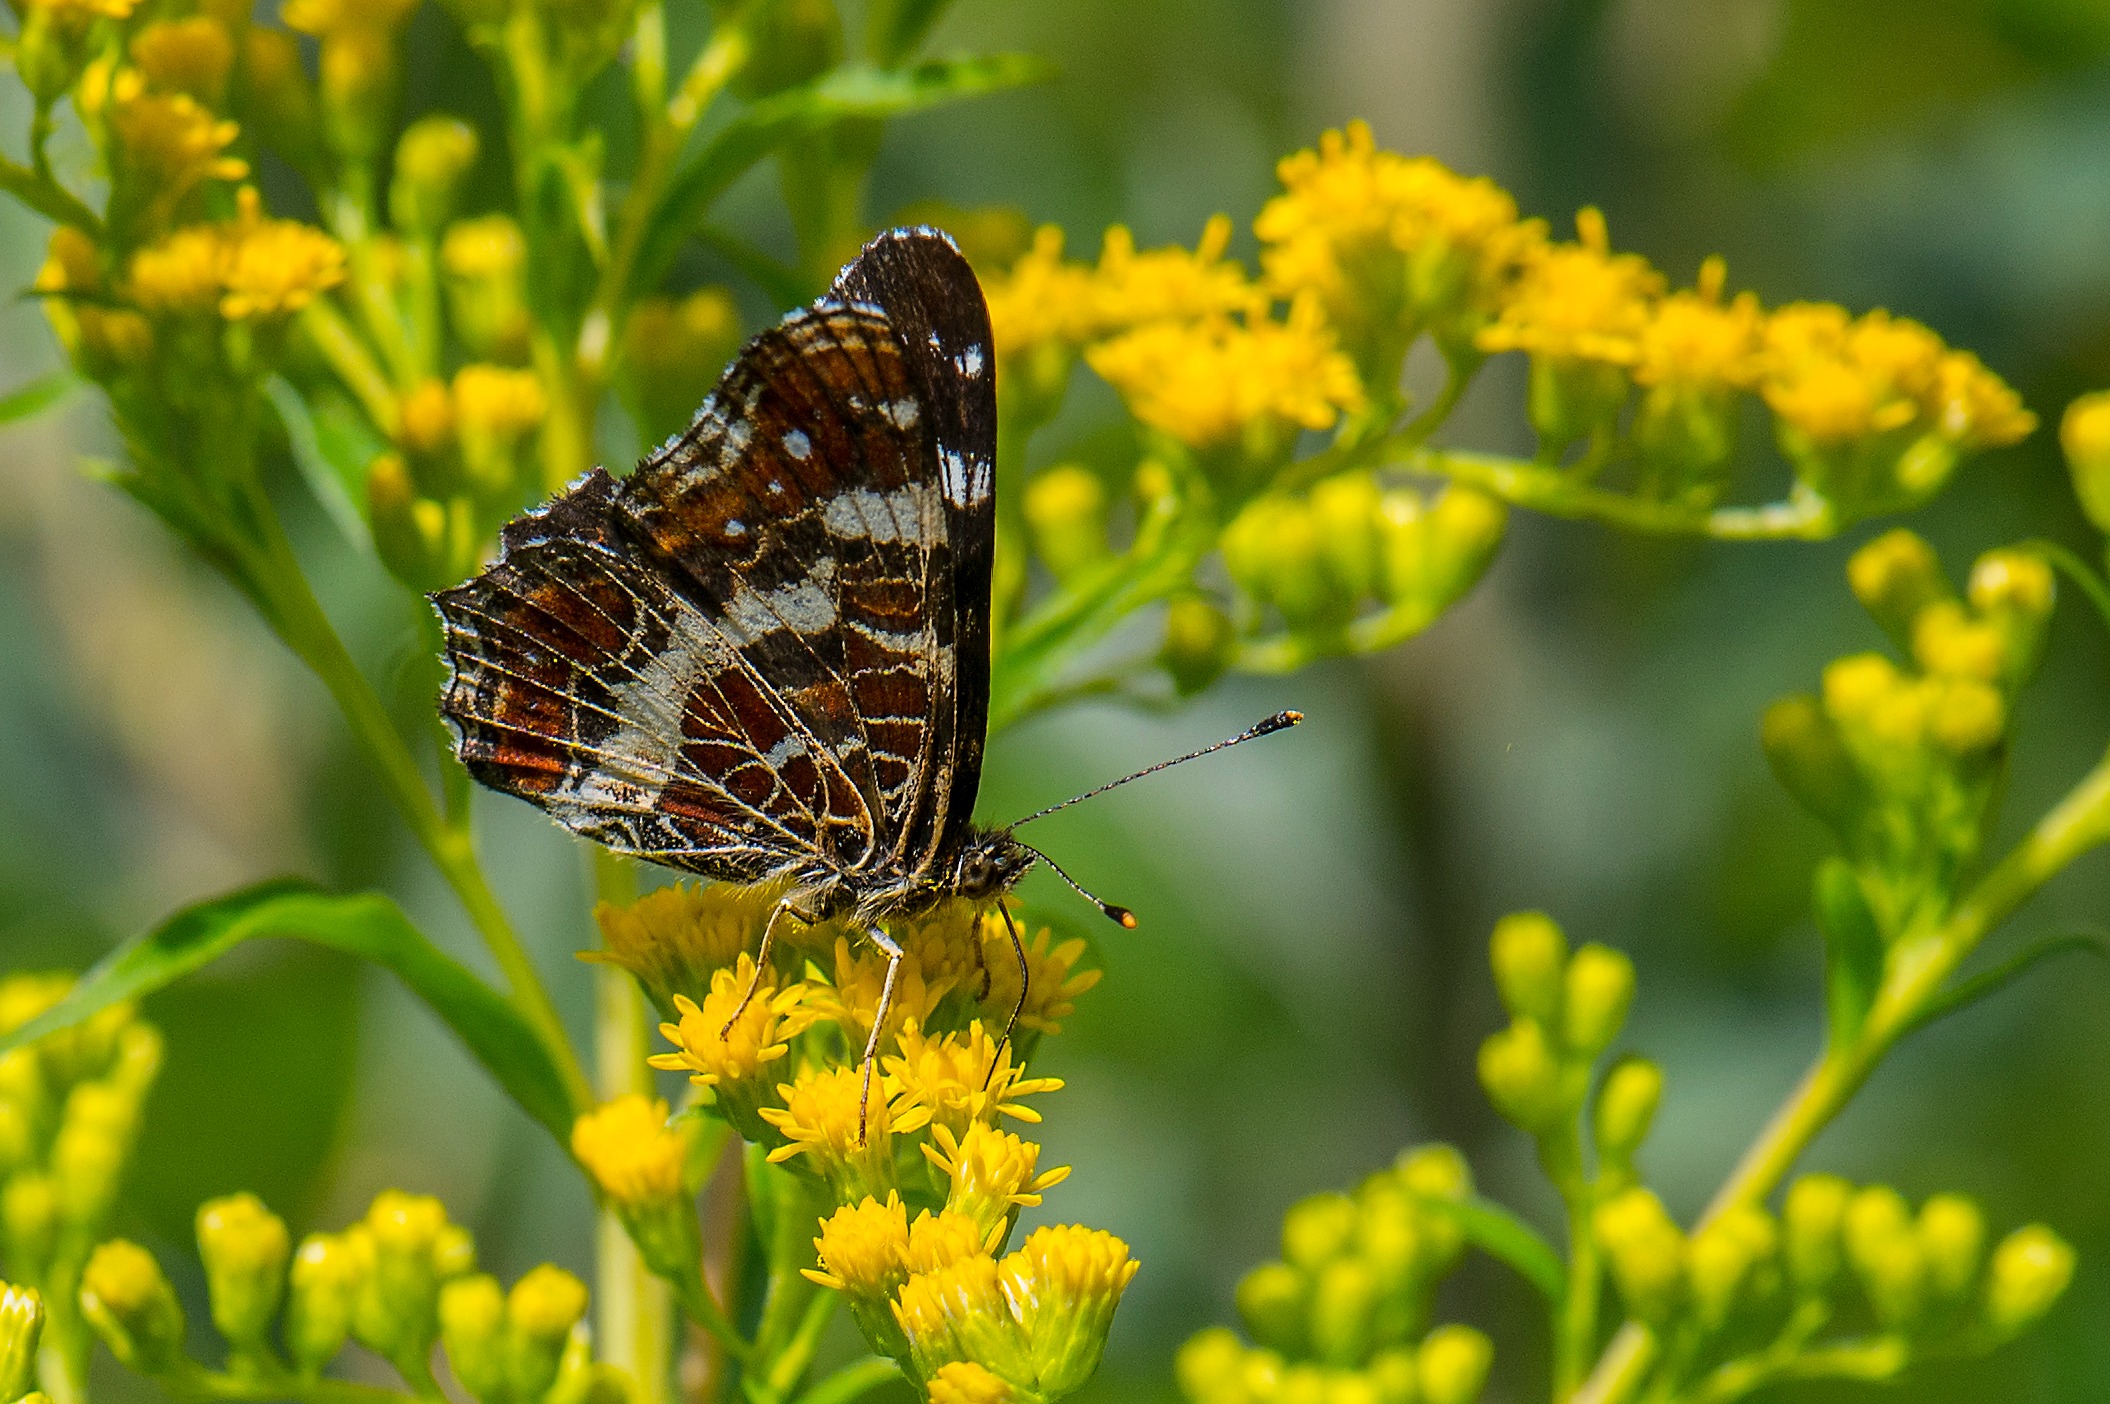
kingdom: Animalia
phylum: Arthropoda
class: Insecta
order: Lepidoptera
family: Nymphalidae
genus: Araschnia
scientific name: Araschnia levana
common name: Nældesommerfugl
